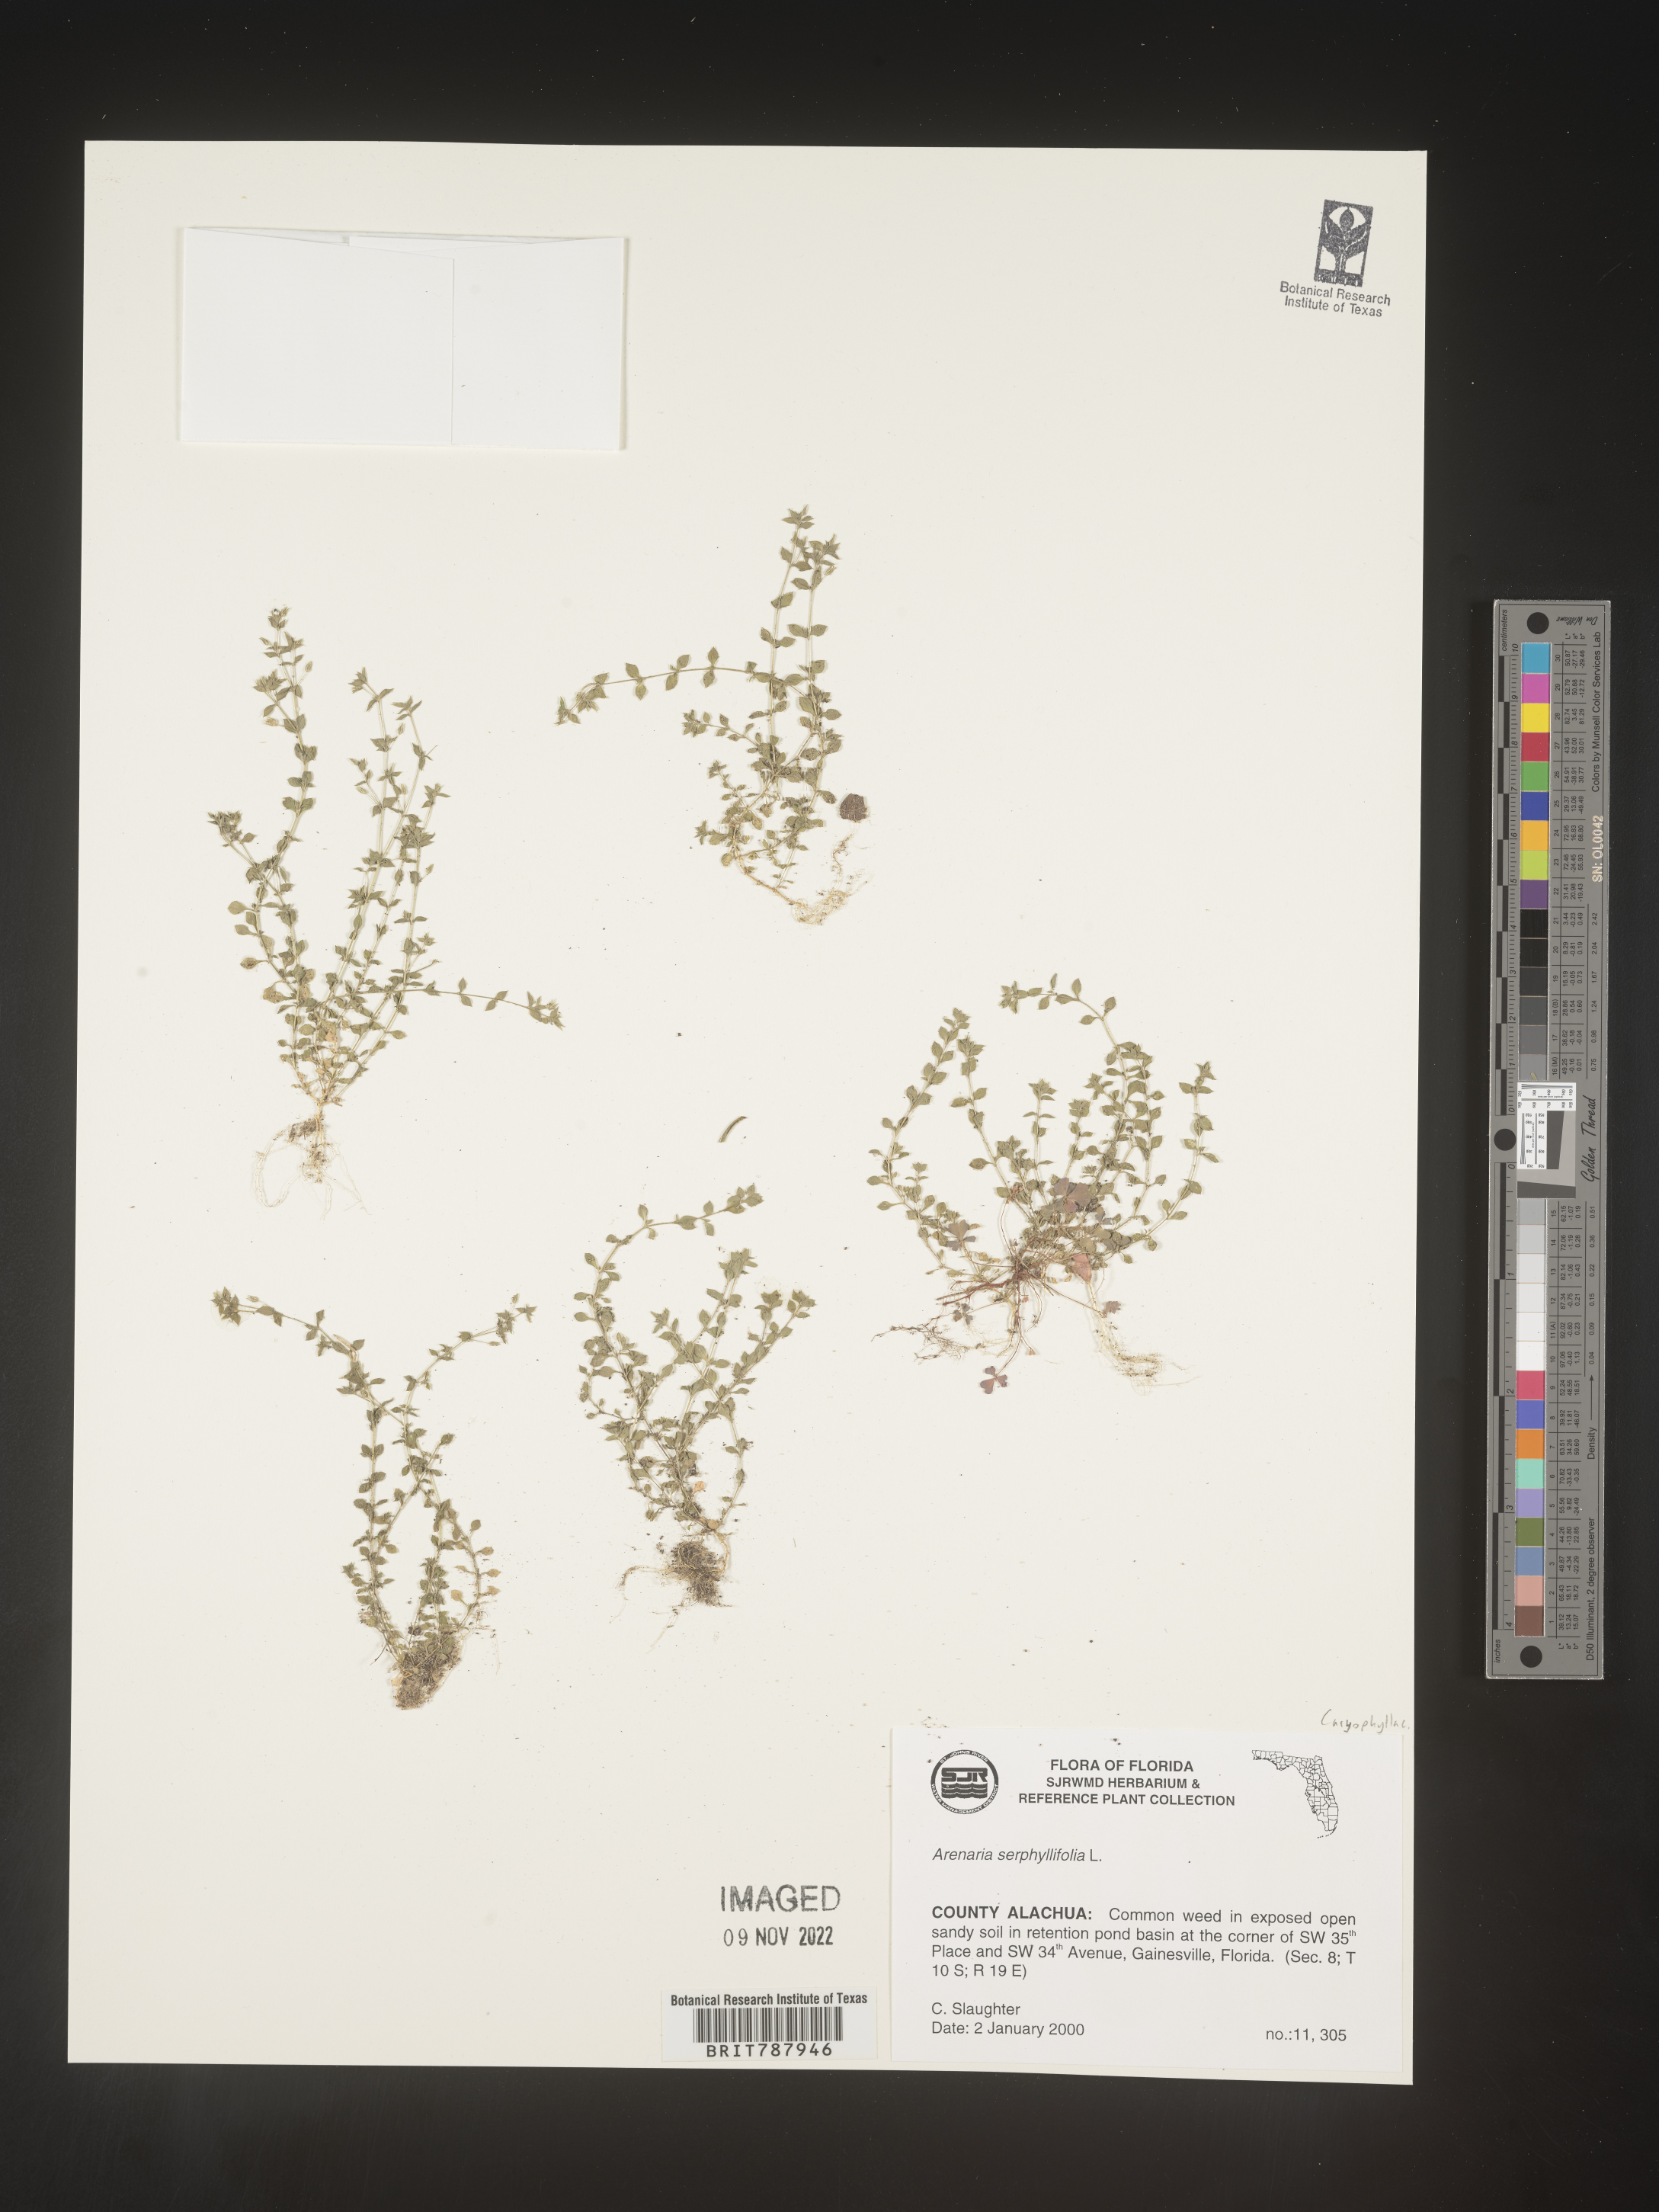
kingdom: Plantae
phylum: Tracheophyta
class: Magnoliopsida
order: Caryophyllales
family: Caryophyllaceae
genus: Arenaria
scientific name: Arenaria serpyllifolia
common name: Thyme-leaved sandwort
